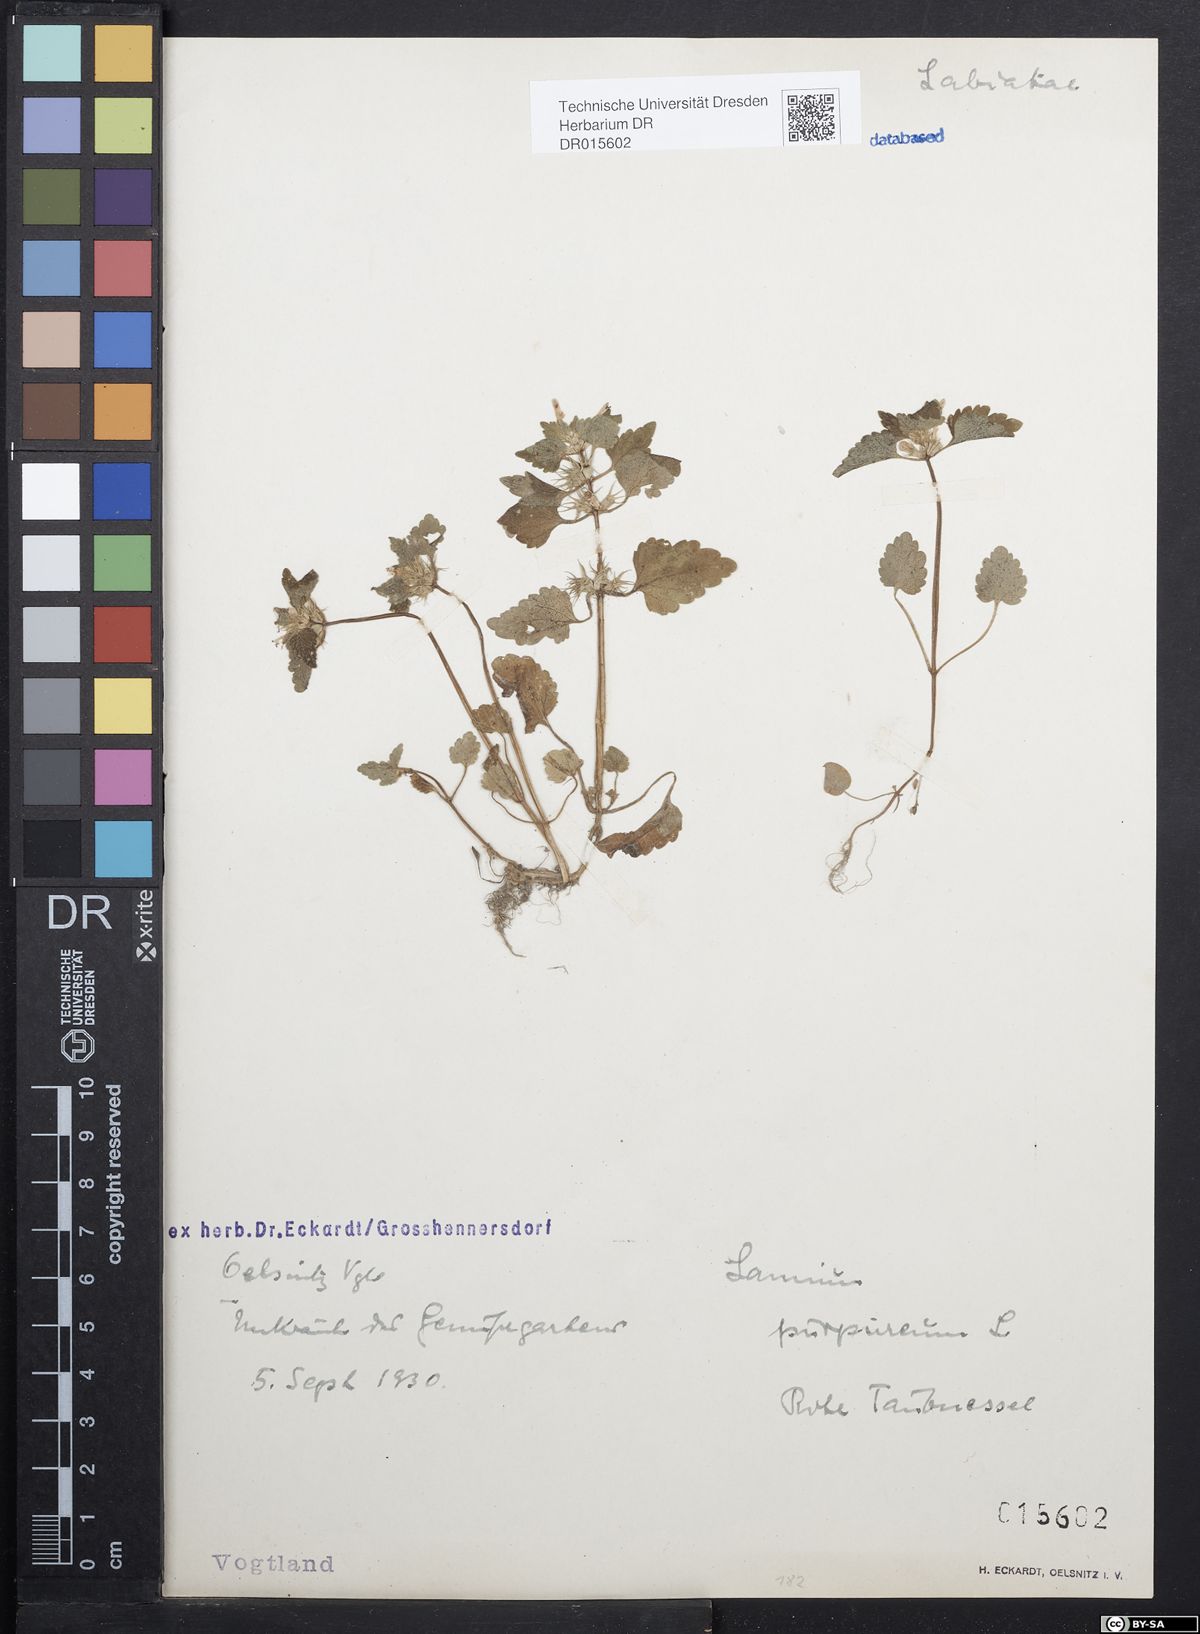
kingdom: Plantae
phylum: Tracheophyta
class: Magnoliopsida
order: Lamiales
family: Lamiaceae
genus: Lamium
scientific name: Lamium purpureum
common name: Red dead-nettle
